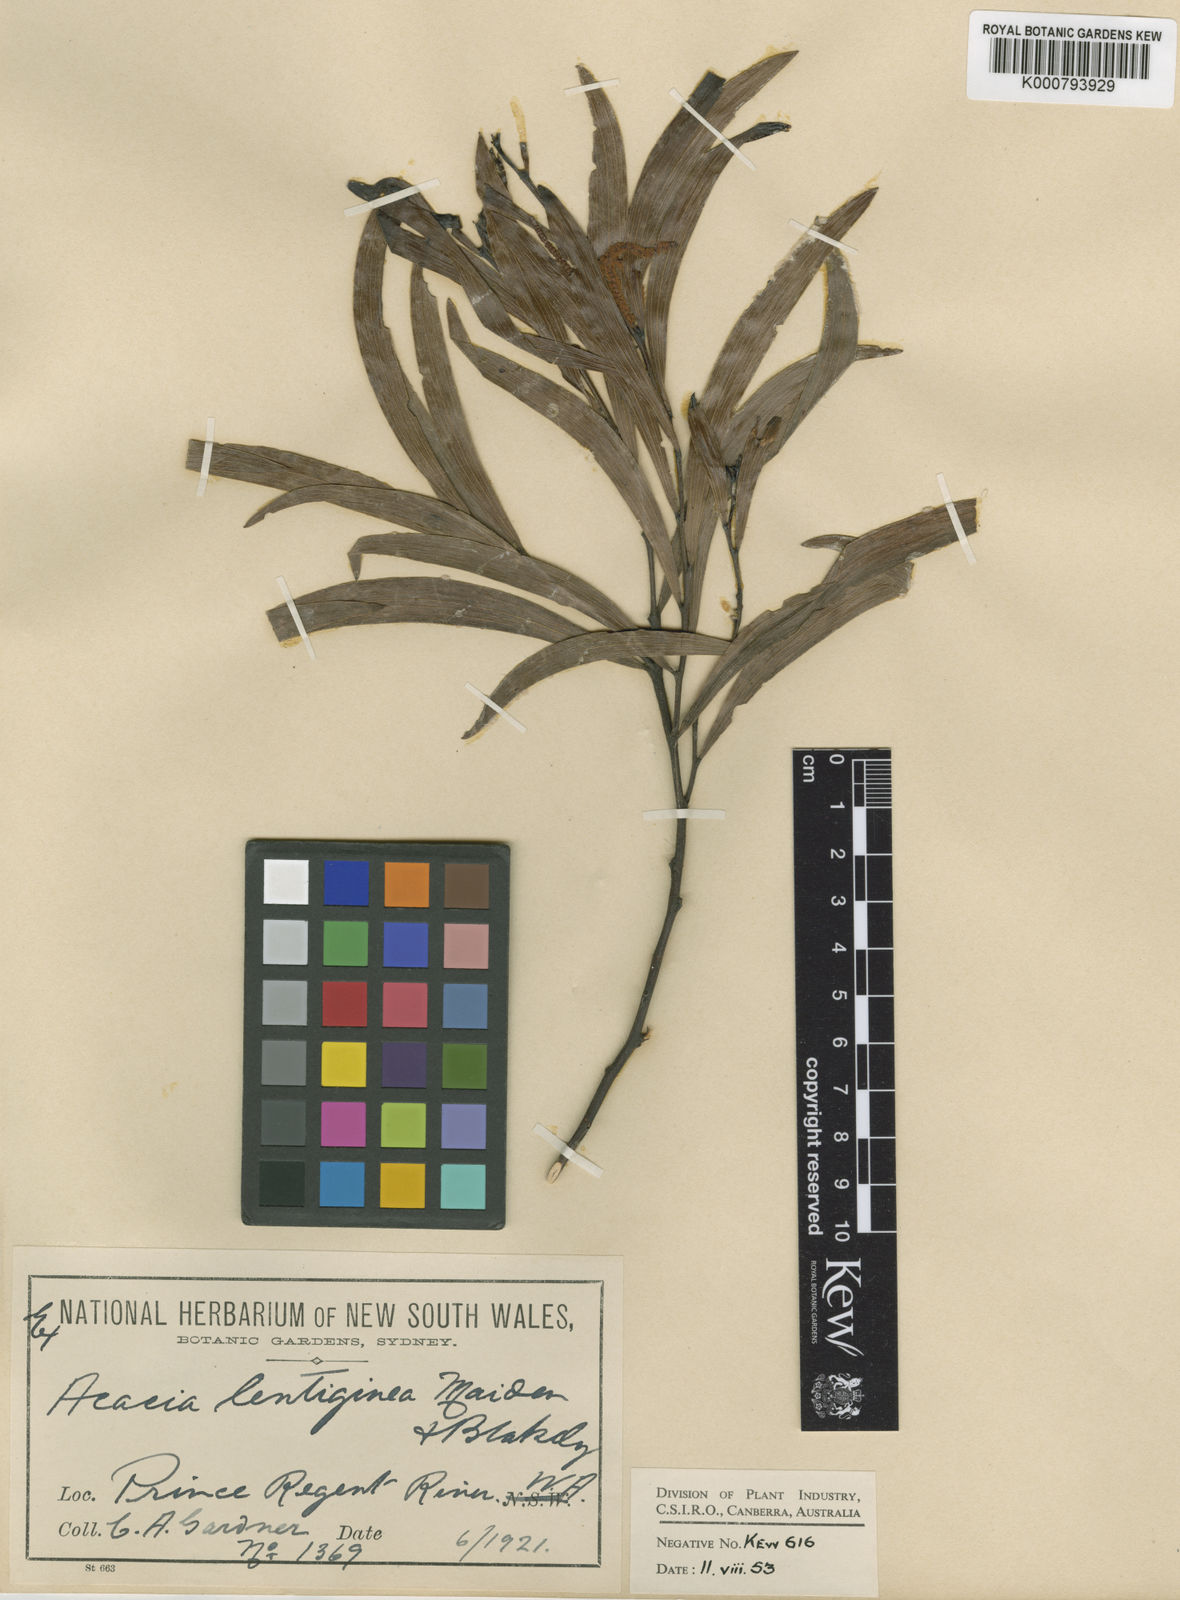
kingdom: Plantae
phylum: Tracheophyta
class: Magnoliopsida
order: Fabales
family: Fabaceae
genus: Acacia
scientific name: Acacia lentiginea
